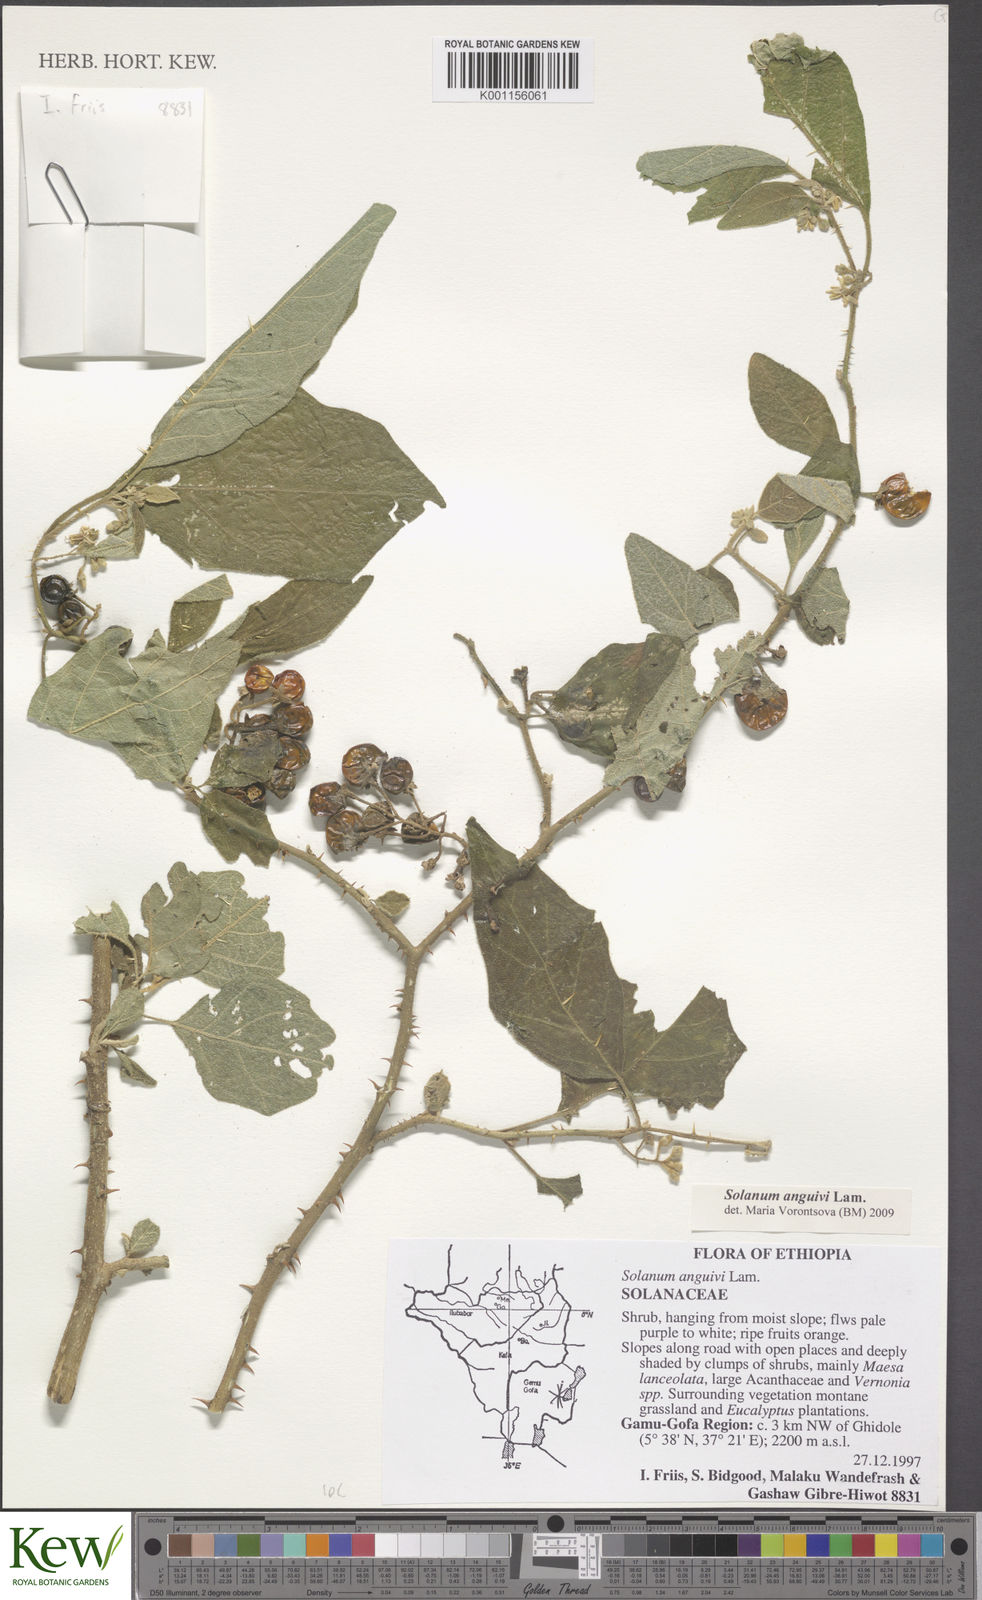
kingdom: Plantae
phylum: Tracheophyta
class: Magnoliopsida
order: Solanales
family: Solanaceae
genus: Solanum
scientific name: Solanum anguivi
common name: Forest bitterberry
